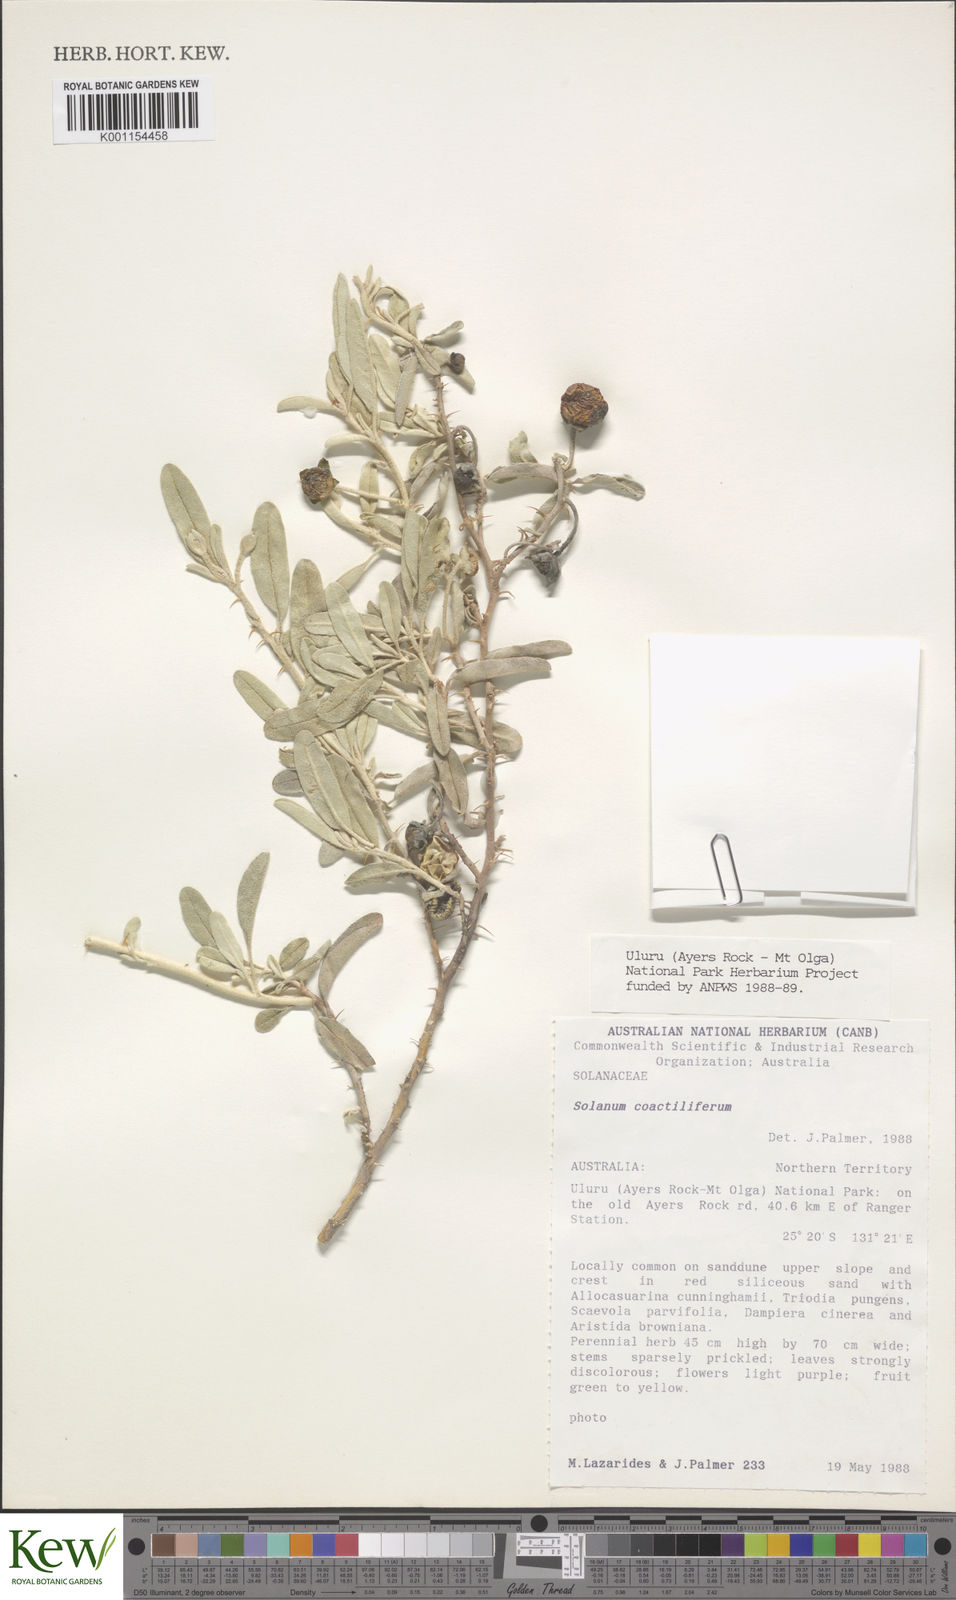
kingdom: Plantae
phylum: Tracheophyta
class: Magnoliopsida
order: Solanales
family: Solanaceae
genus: Solanum
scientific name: Solanum coactiliferum
